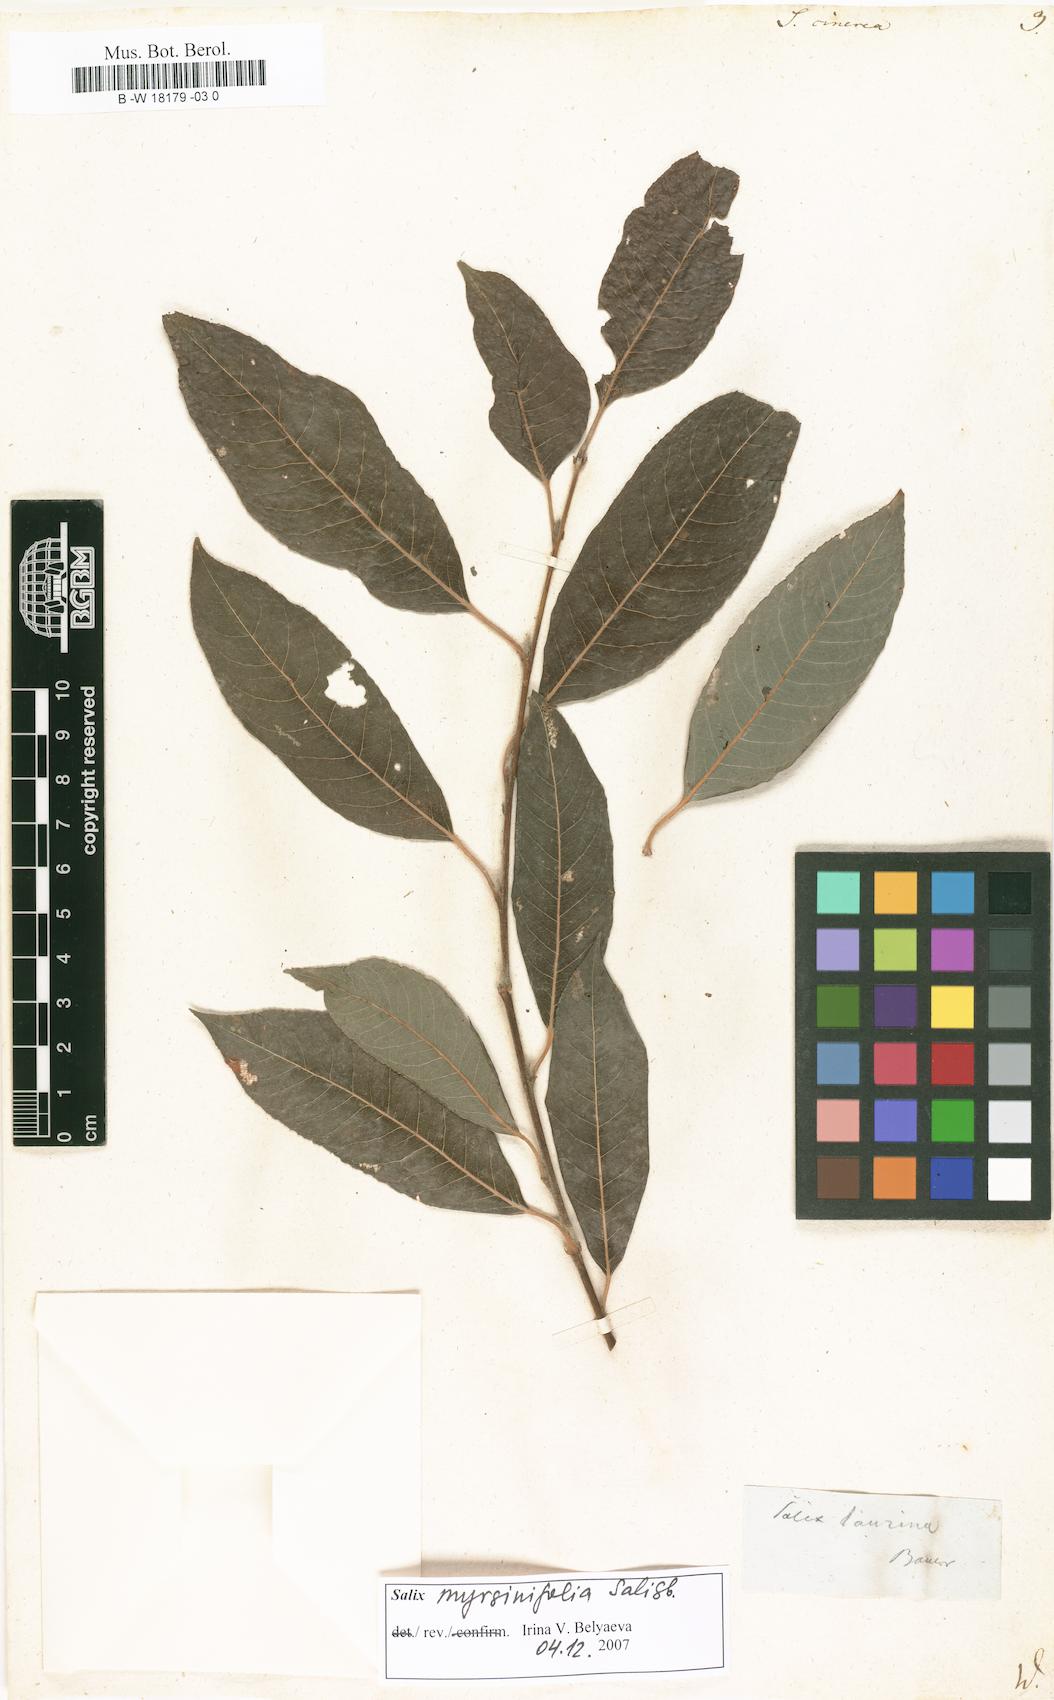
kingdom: Plantae
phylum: Tracheophyta
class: Magnoliopsida
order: Malpighiales
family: Salicaceae
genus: Salix
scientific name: Salix cinerea
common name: Common sallow
